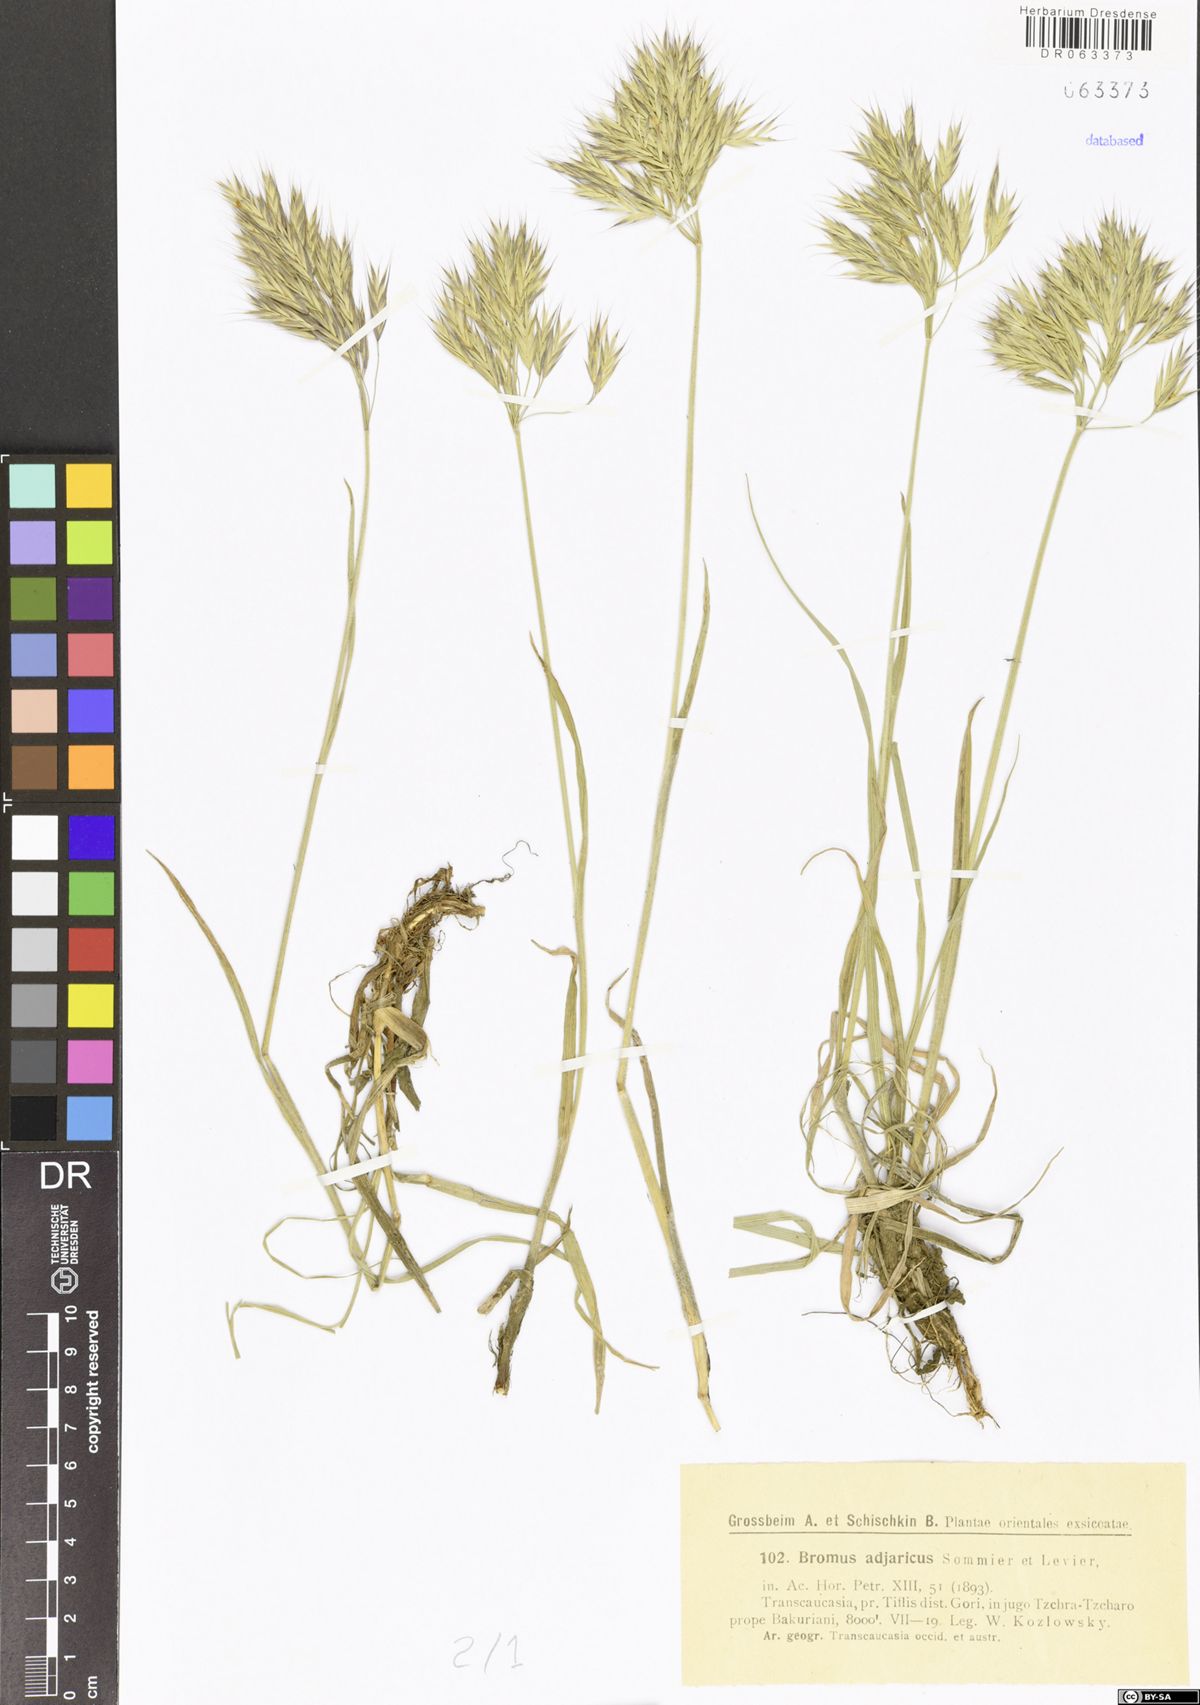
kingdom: Plantae
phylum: Tracheophyta
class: Liliopsida
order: Poales
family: Poaceae
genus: Bromus
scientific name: Bromus variegatus
